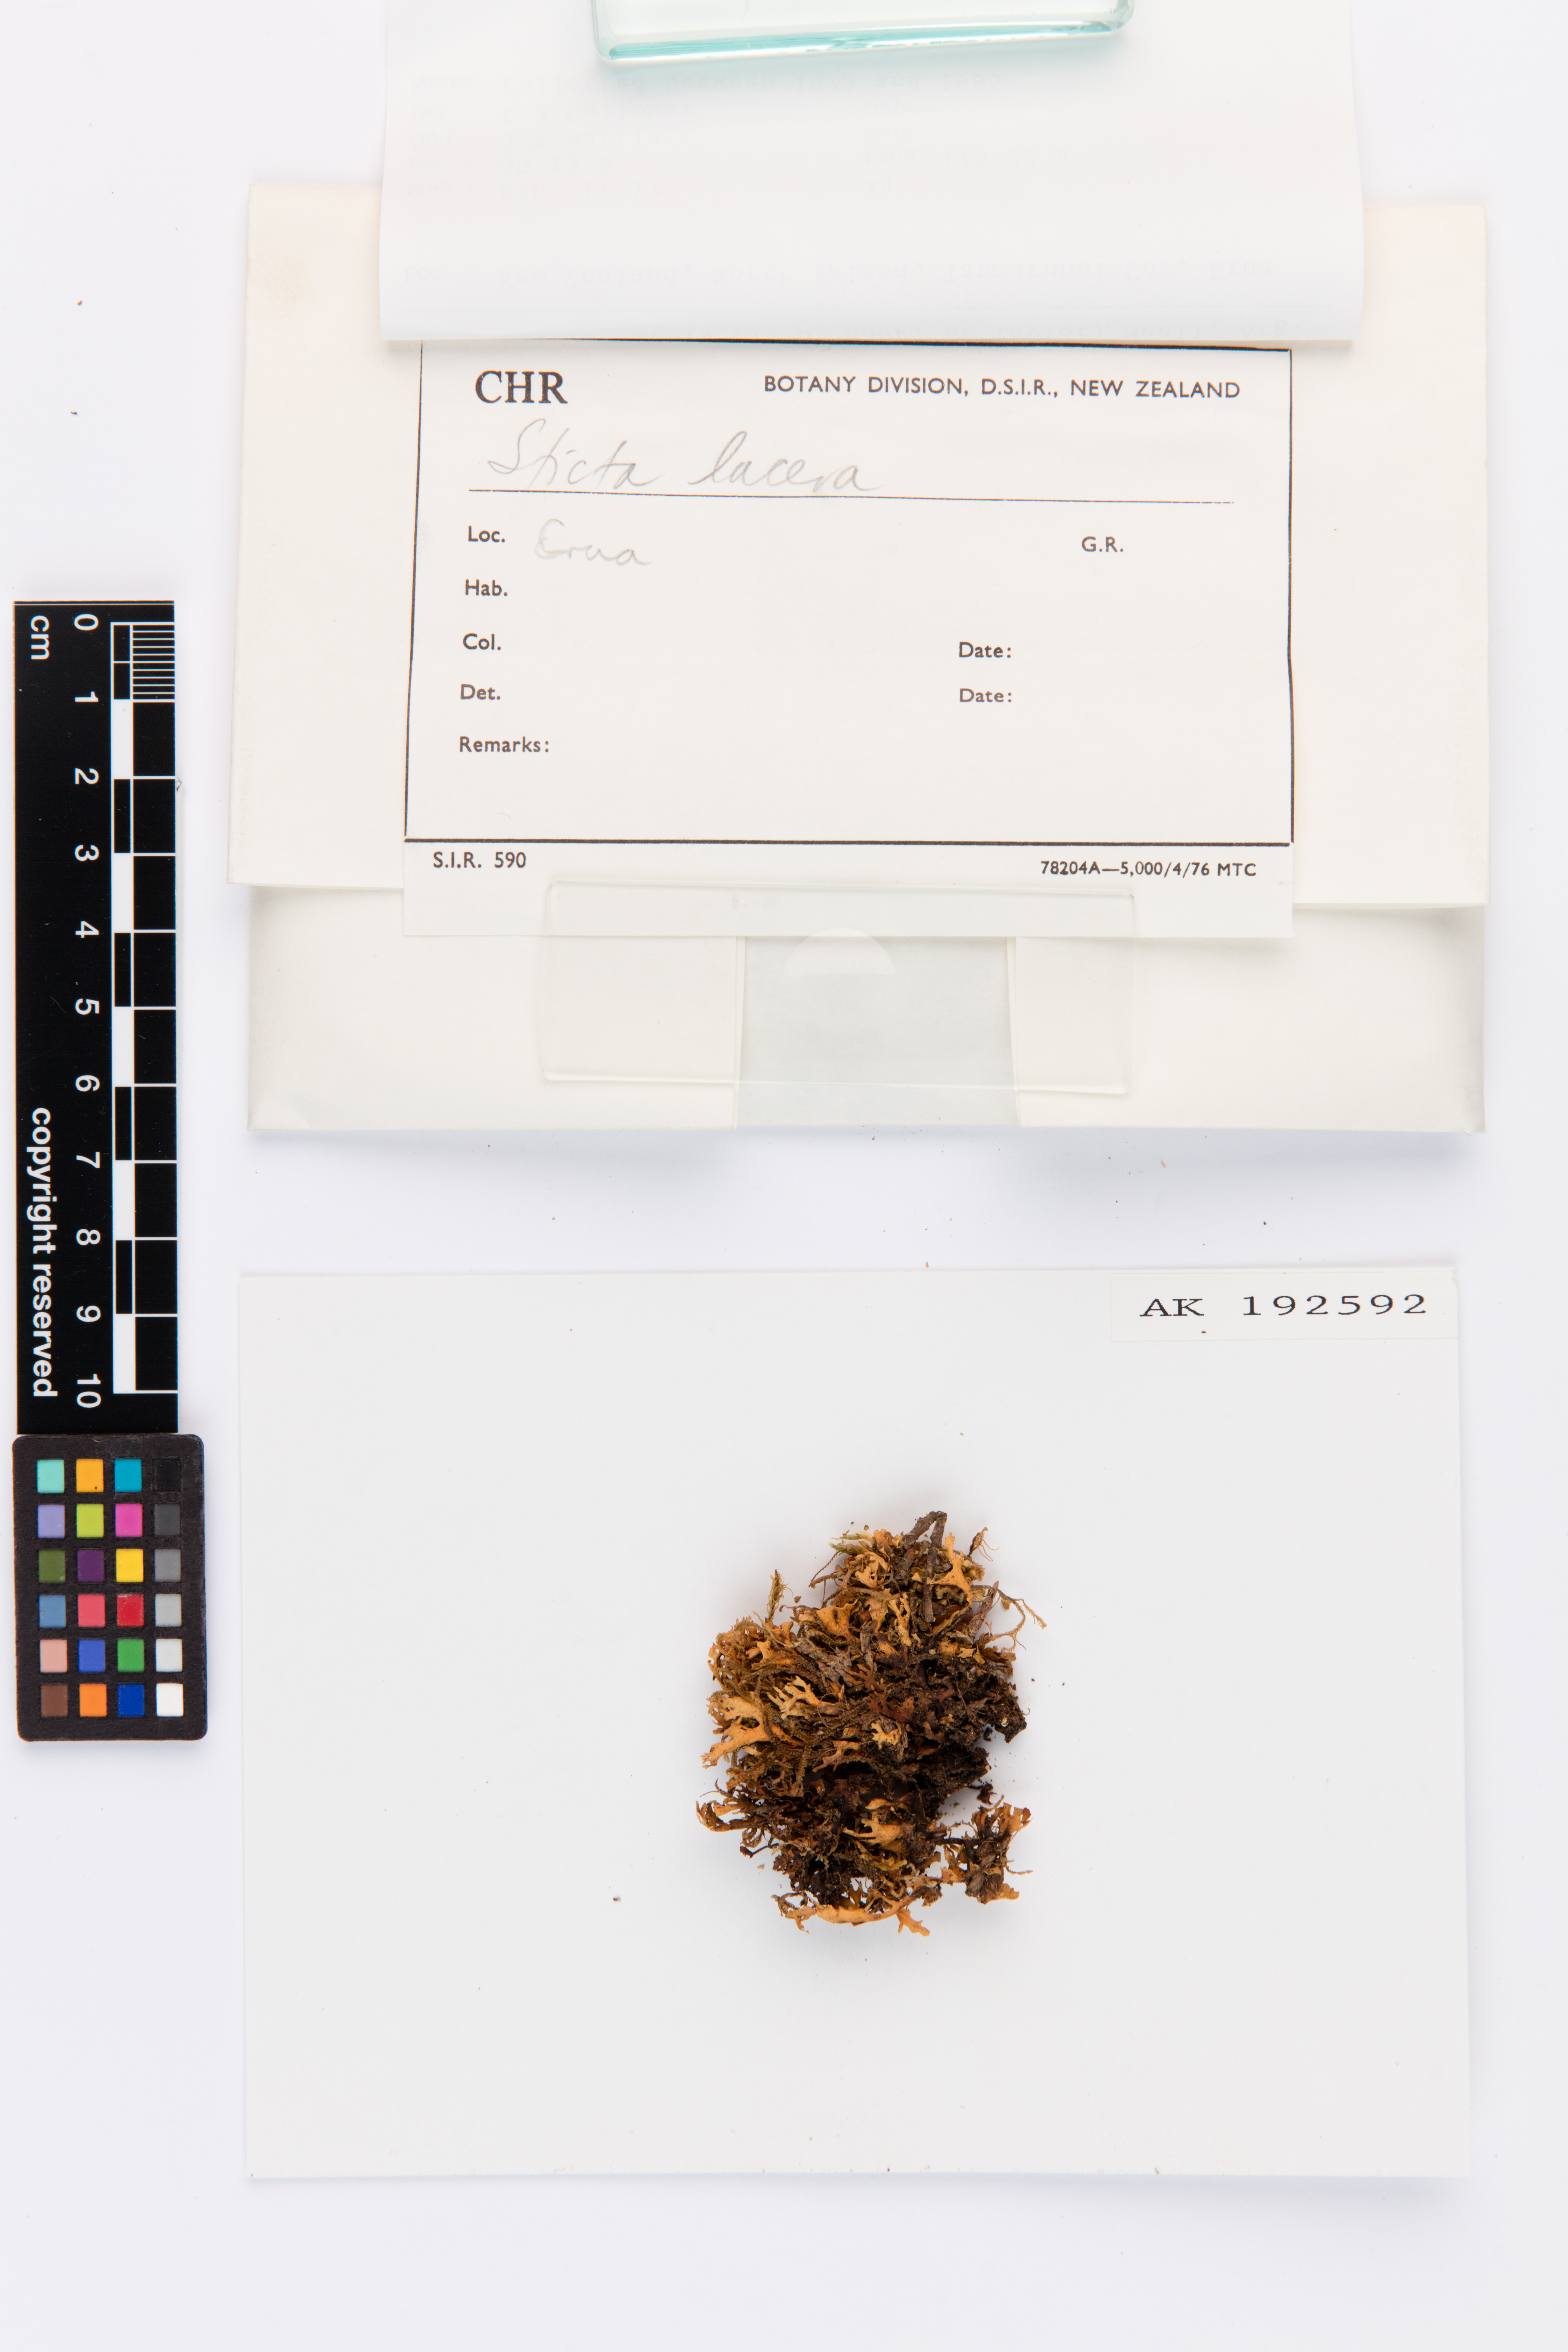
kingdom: Fungi
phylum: Ascomycota
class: Lecanoromycetes
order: Peltigerales
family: Lobariaceae
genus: Sticta
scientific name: Sticta
